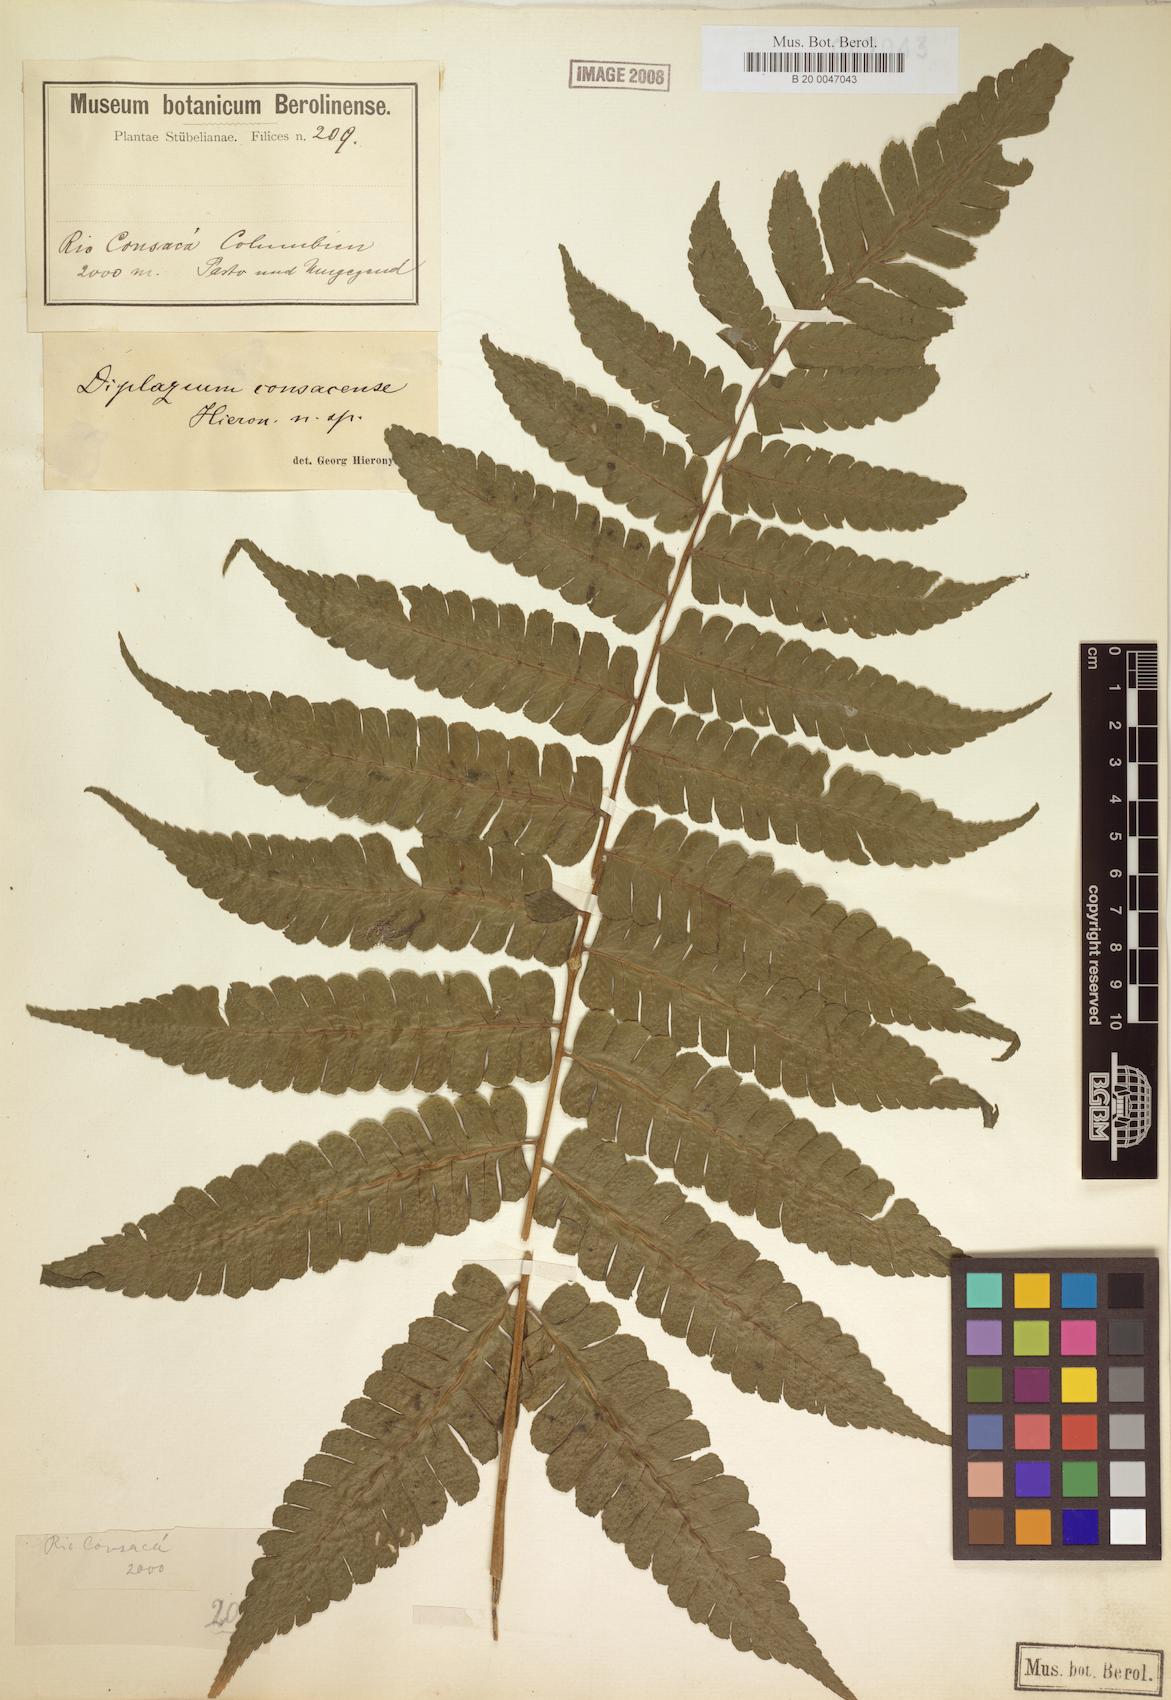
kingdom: Plantae
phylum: Tracheophyta
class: Polypodiopsida
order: Polypodiales
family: Athyriaceae
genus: Diplazium
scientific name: Diplazium consacense
